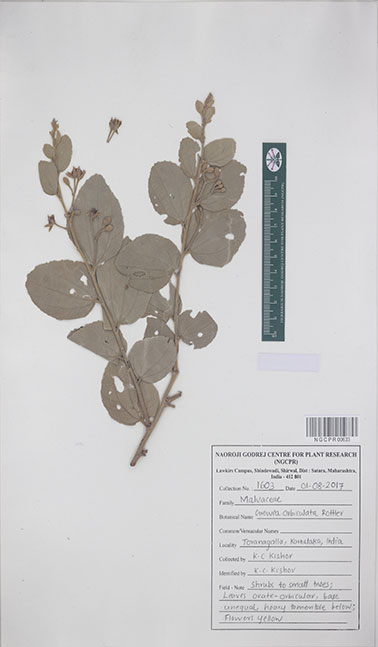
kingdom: Plantae
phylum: Tracheophyta
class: Magnoliopsida
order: Malvales
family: Malvaceae
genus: Grewia
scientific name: Grewia orbiculata
